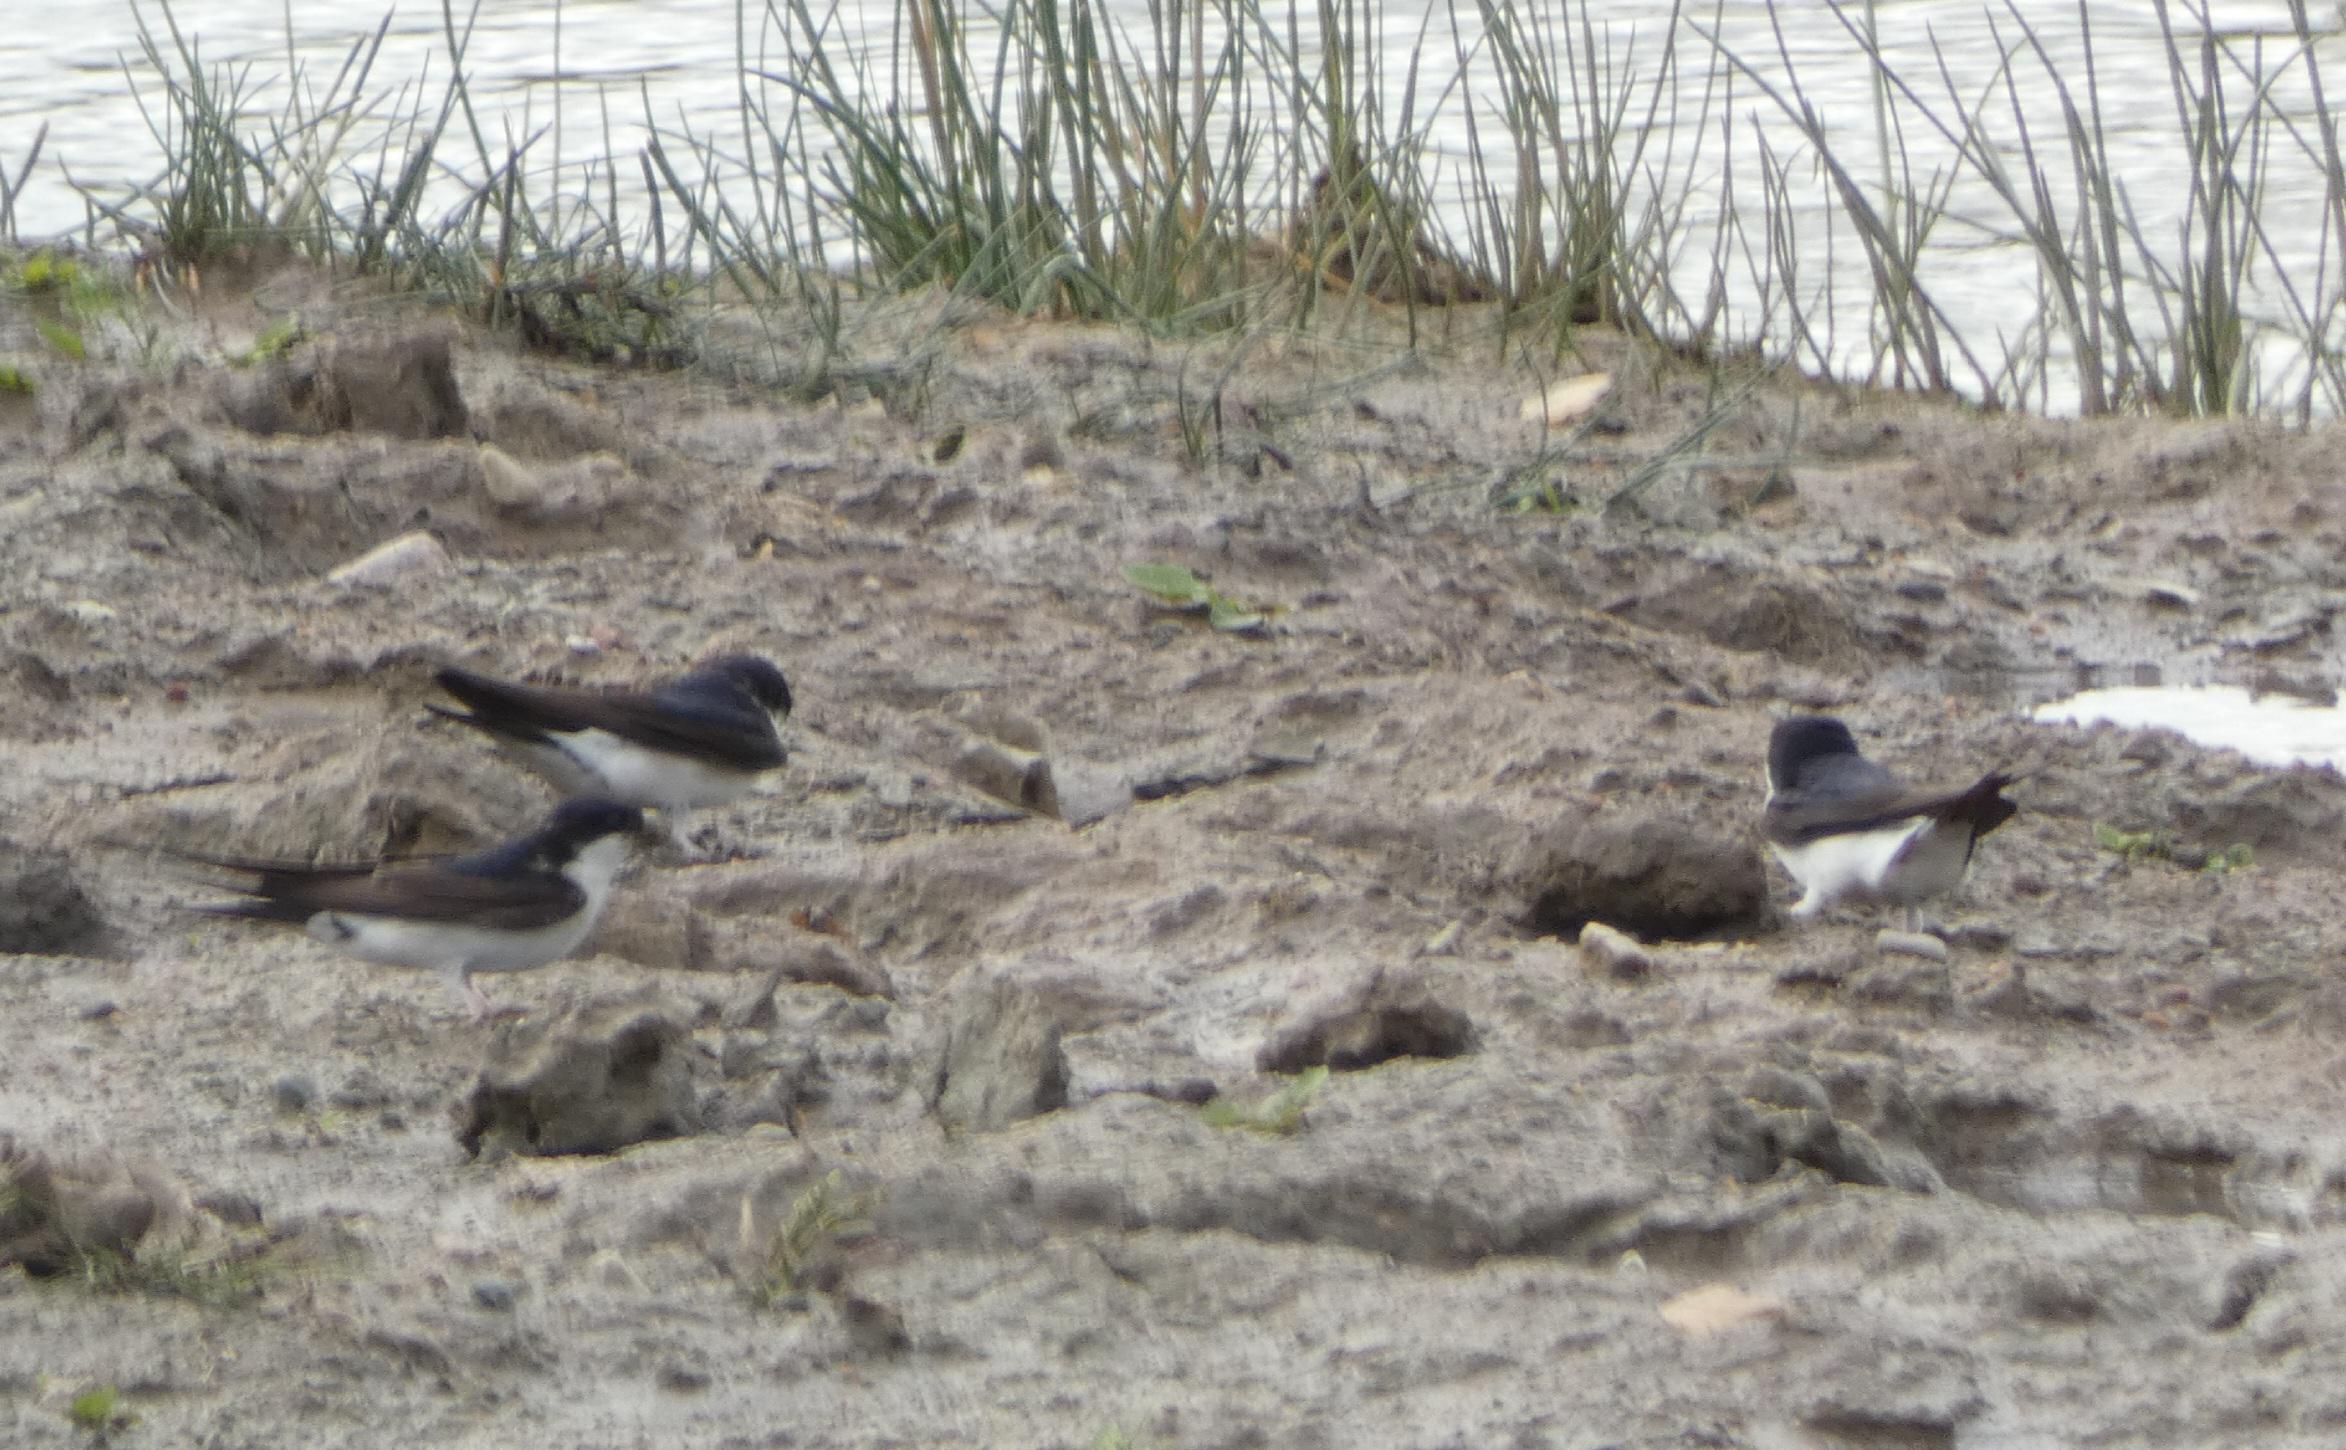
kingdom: Animalia
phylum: Chordata
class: Aves
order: Passeriformes
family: Hirundinidae
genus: Delichon
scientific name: Delichon urbicum
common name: Bysvale
